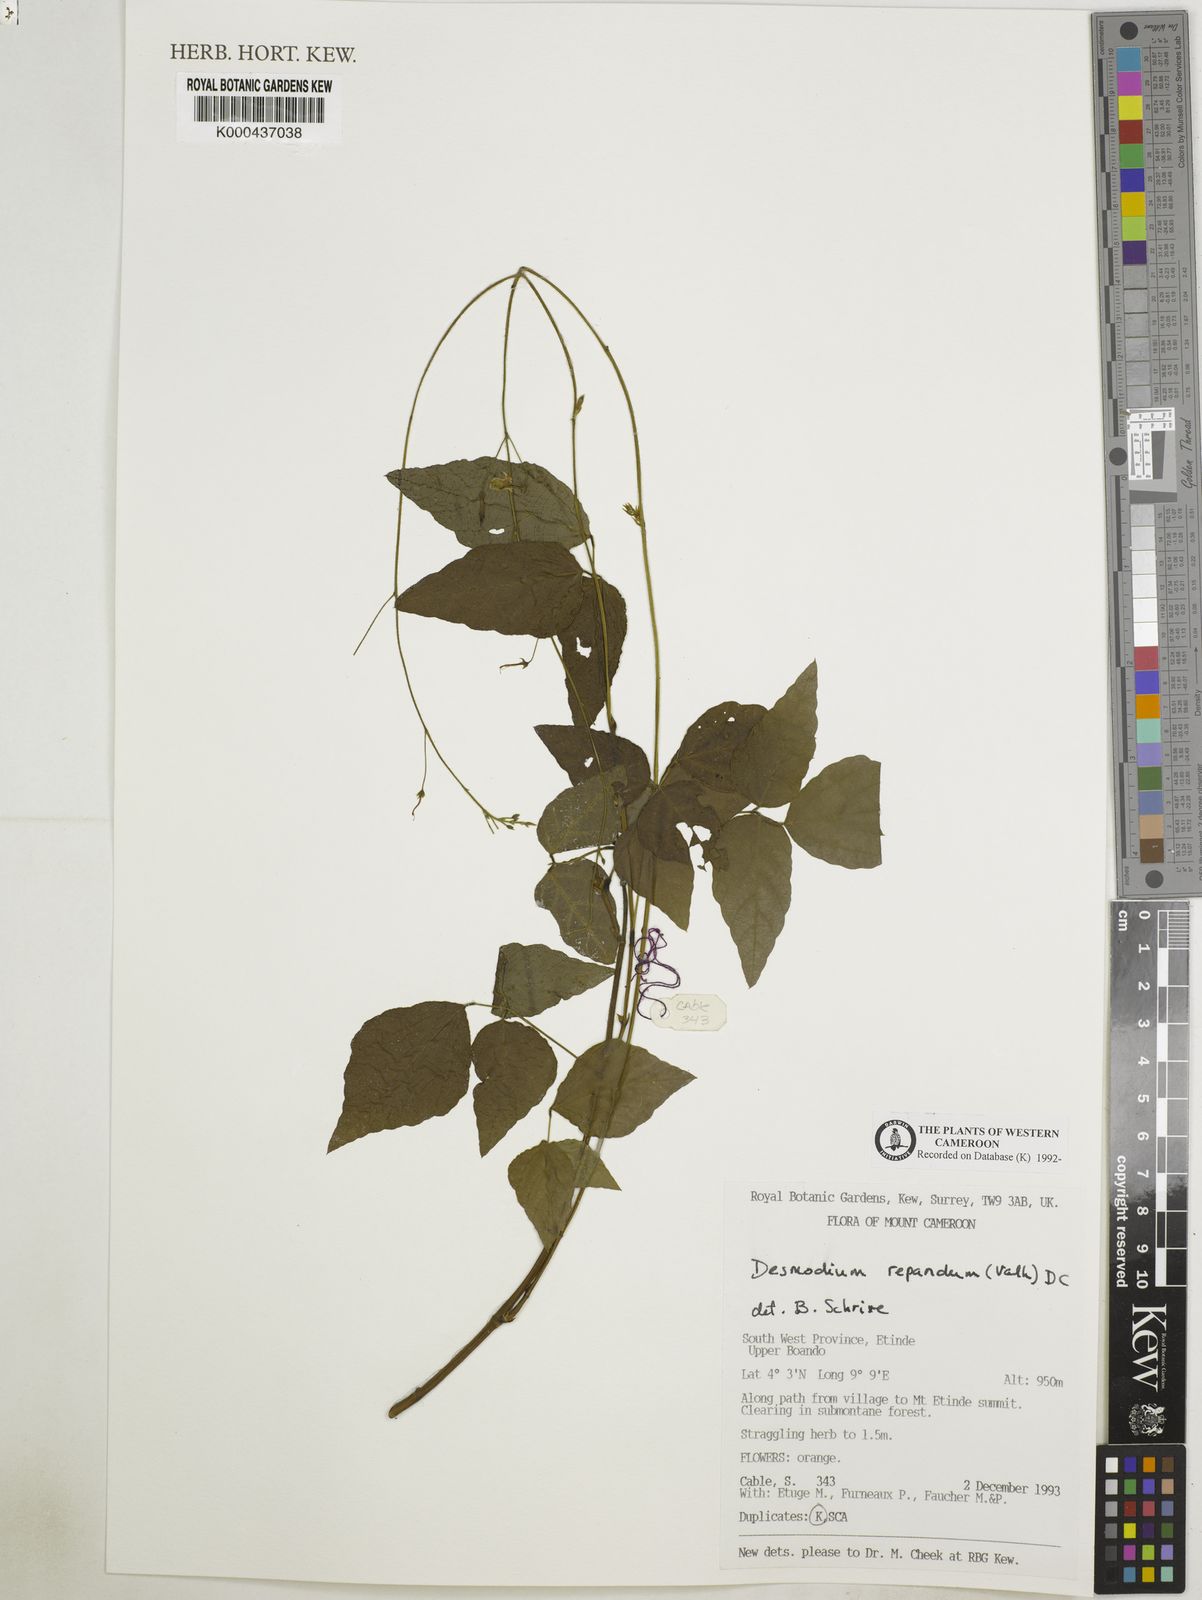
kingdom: Plantae
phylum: Tracheophyta
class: Magnoliopsida
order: Fabales
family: Fabaceae
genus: Desmodium
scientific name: Desmodium
